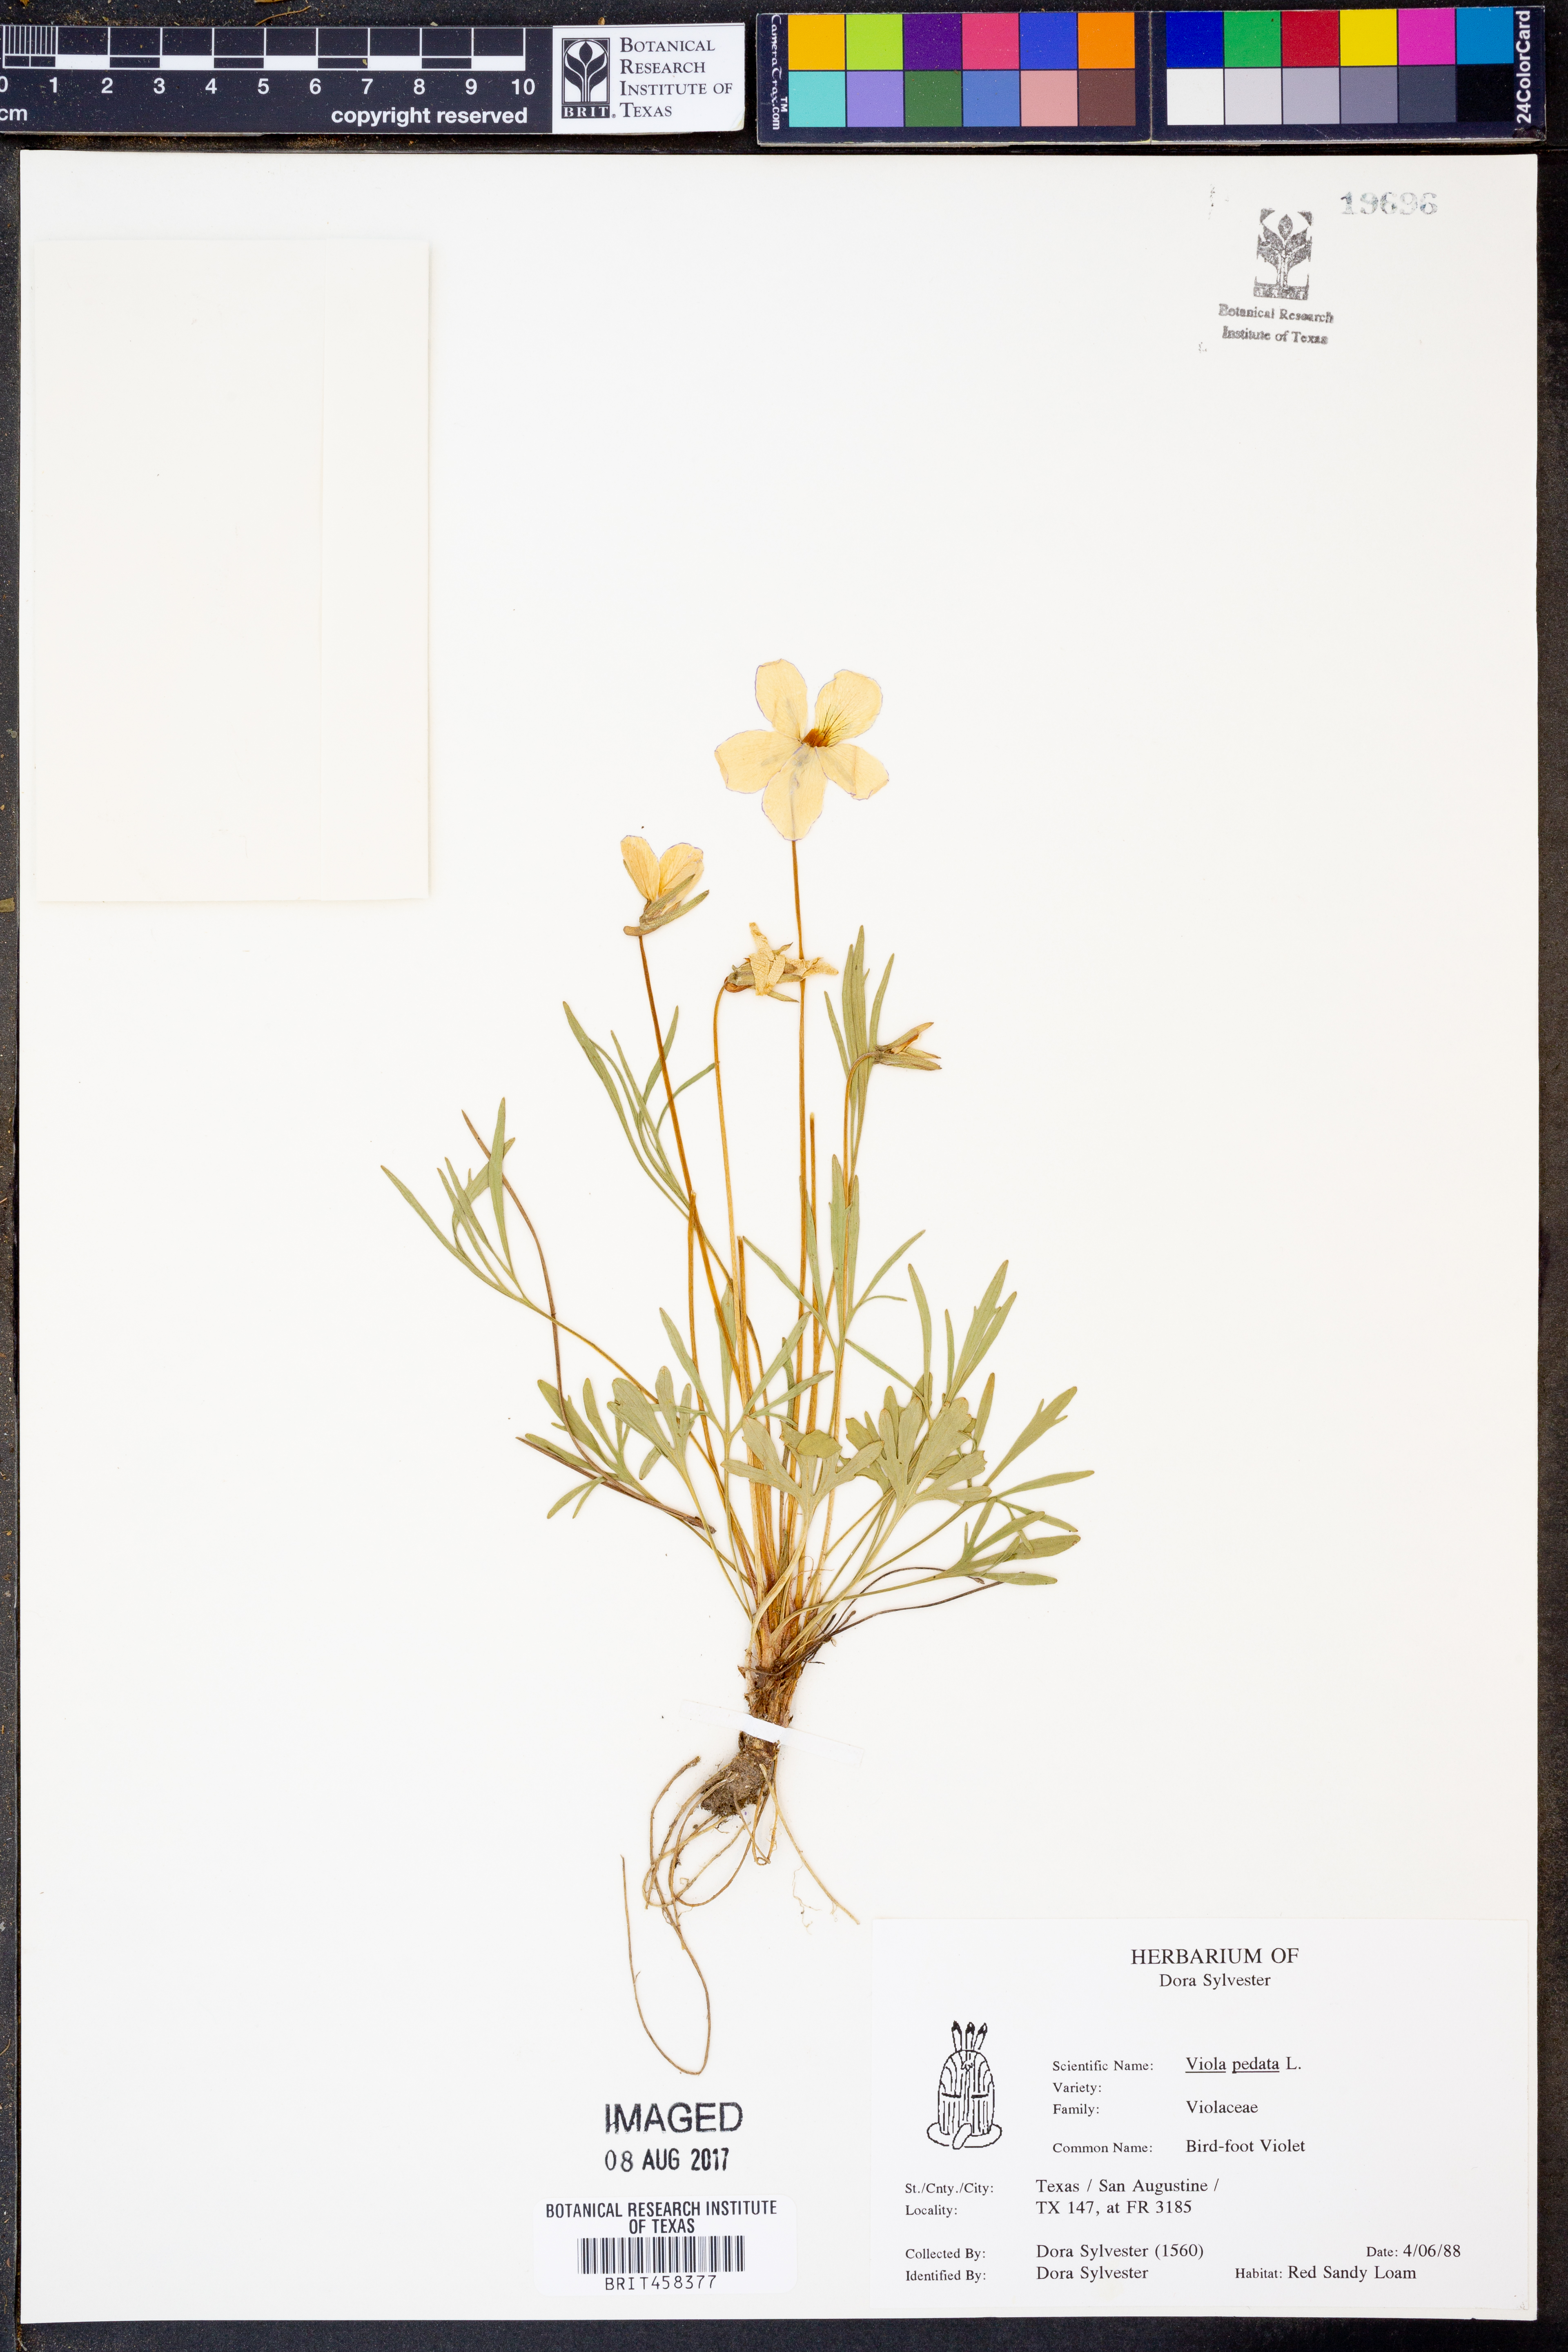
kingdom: Plantae
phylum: Tracheophyta
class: Magnoliopsida
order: Malpighiales
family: Violaceae
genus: Viola
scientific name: Viola pedata
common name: Pansy violet
